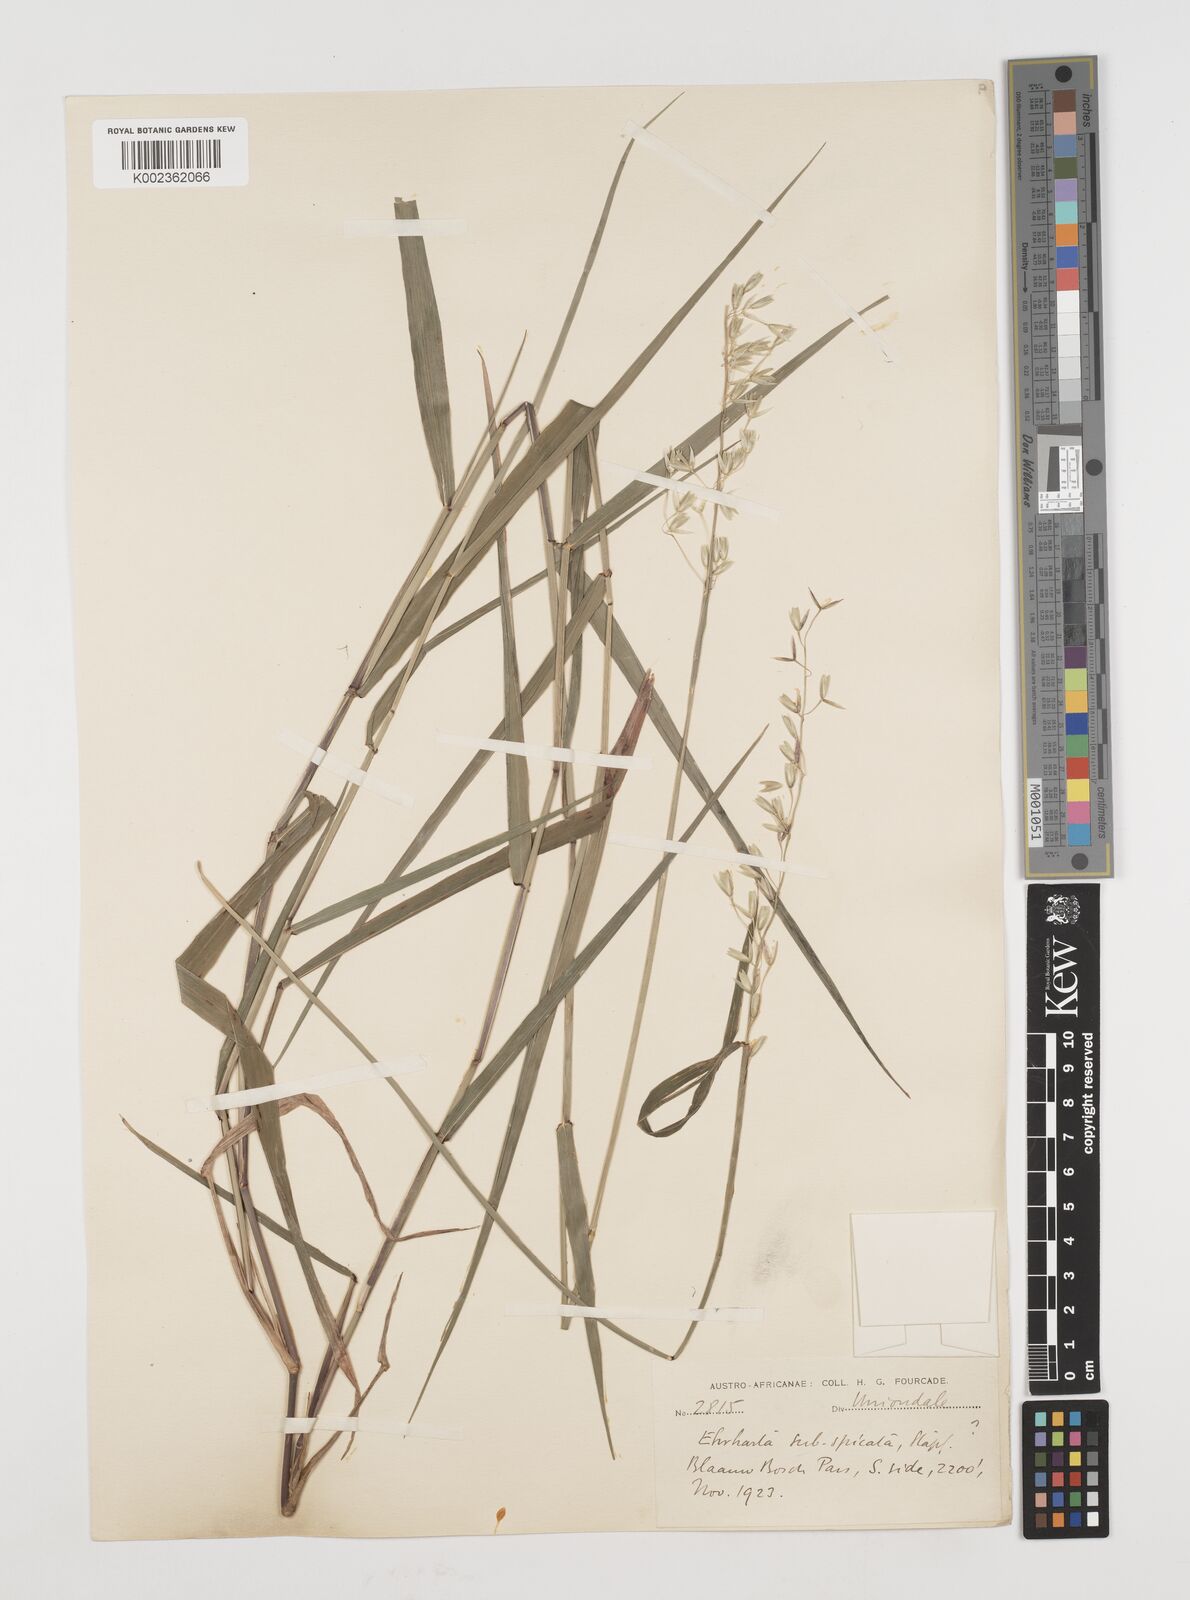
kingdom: Plantae
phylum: Tracheophyta
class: Liliopsida
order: Poales
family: Poaceae
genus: Ehrharta
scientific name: Ehrharta rehmannii
